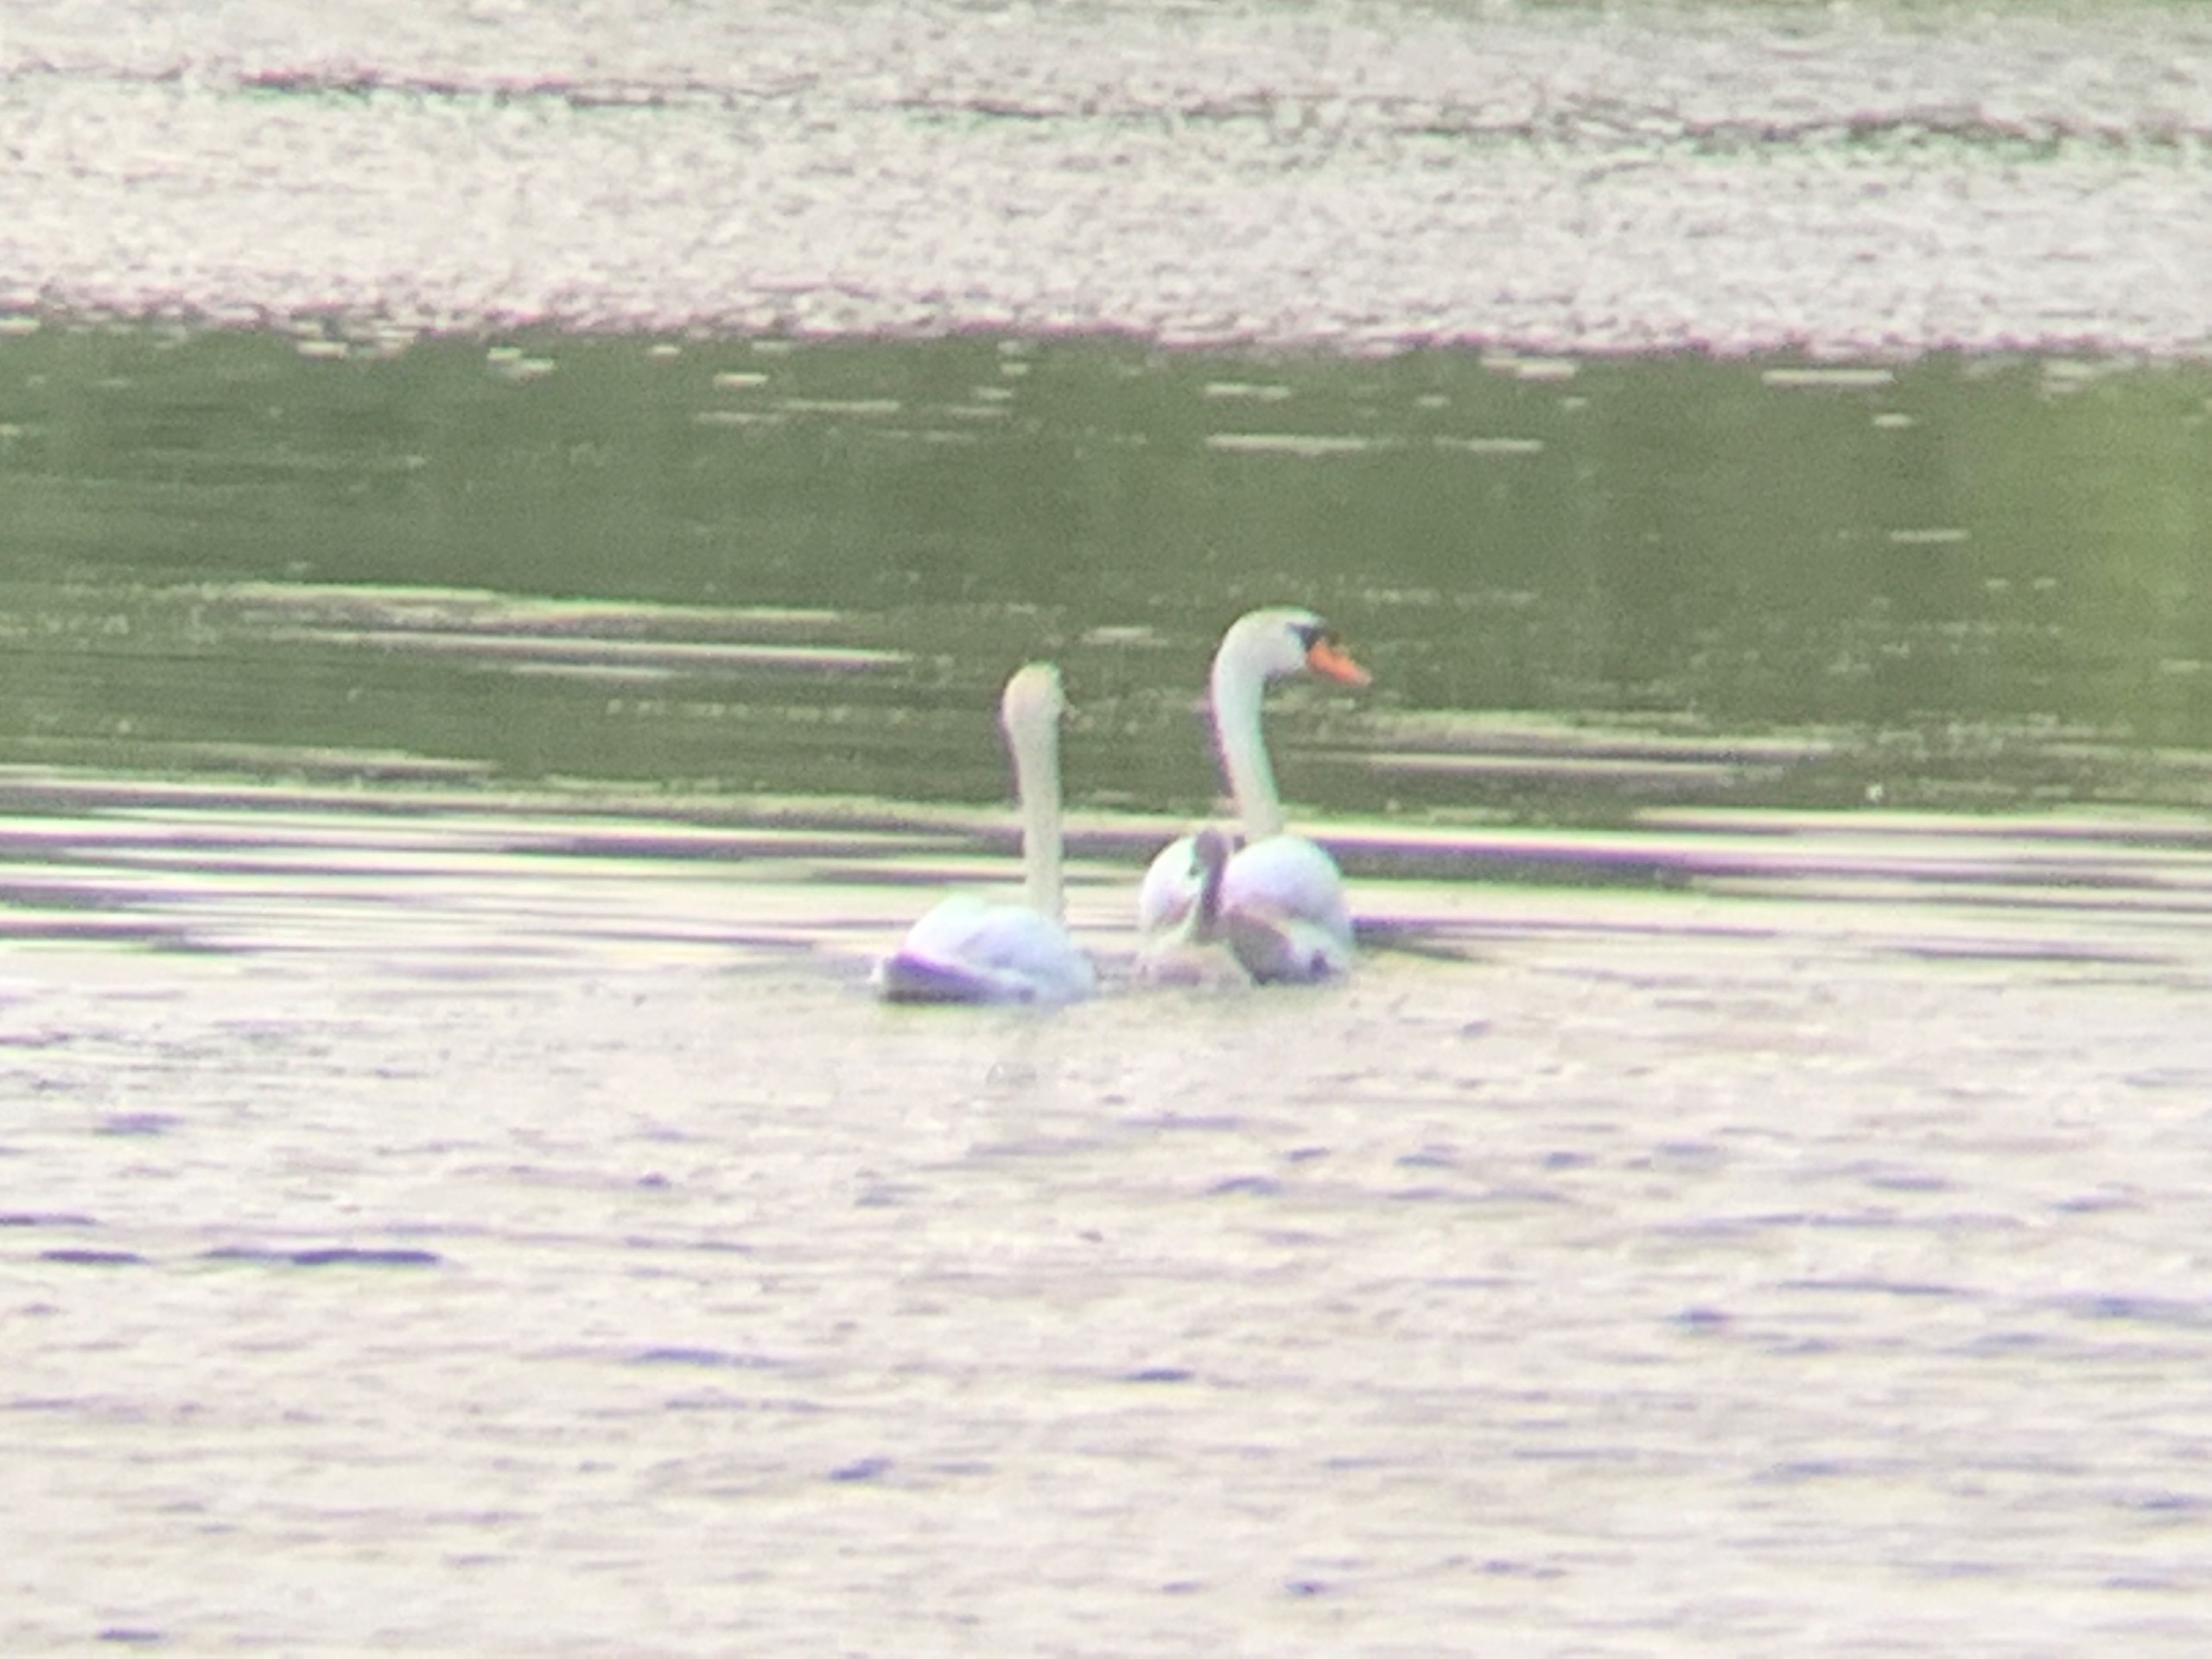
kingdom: Animalia
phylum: Chordata
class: Aves
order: Anseriformes
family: Anatidae
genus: Cygnus
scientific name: Cygnus olor
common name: Knopsvane
